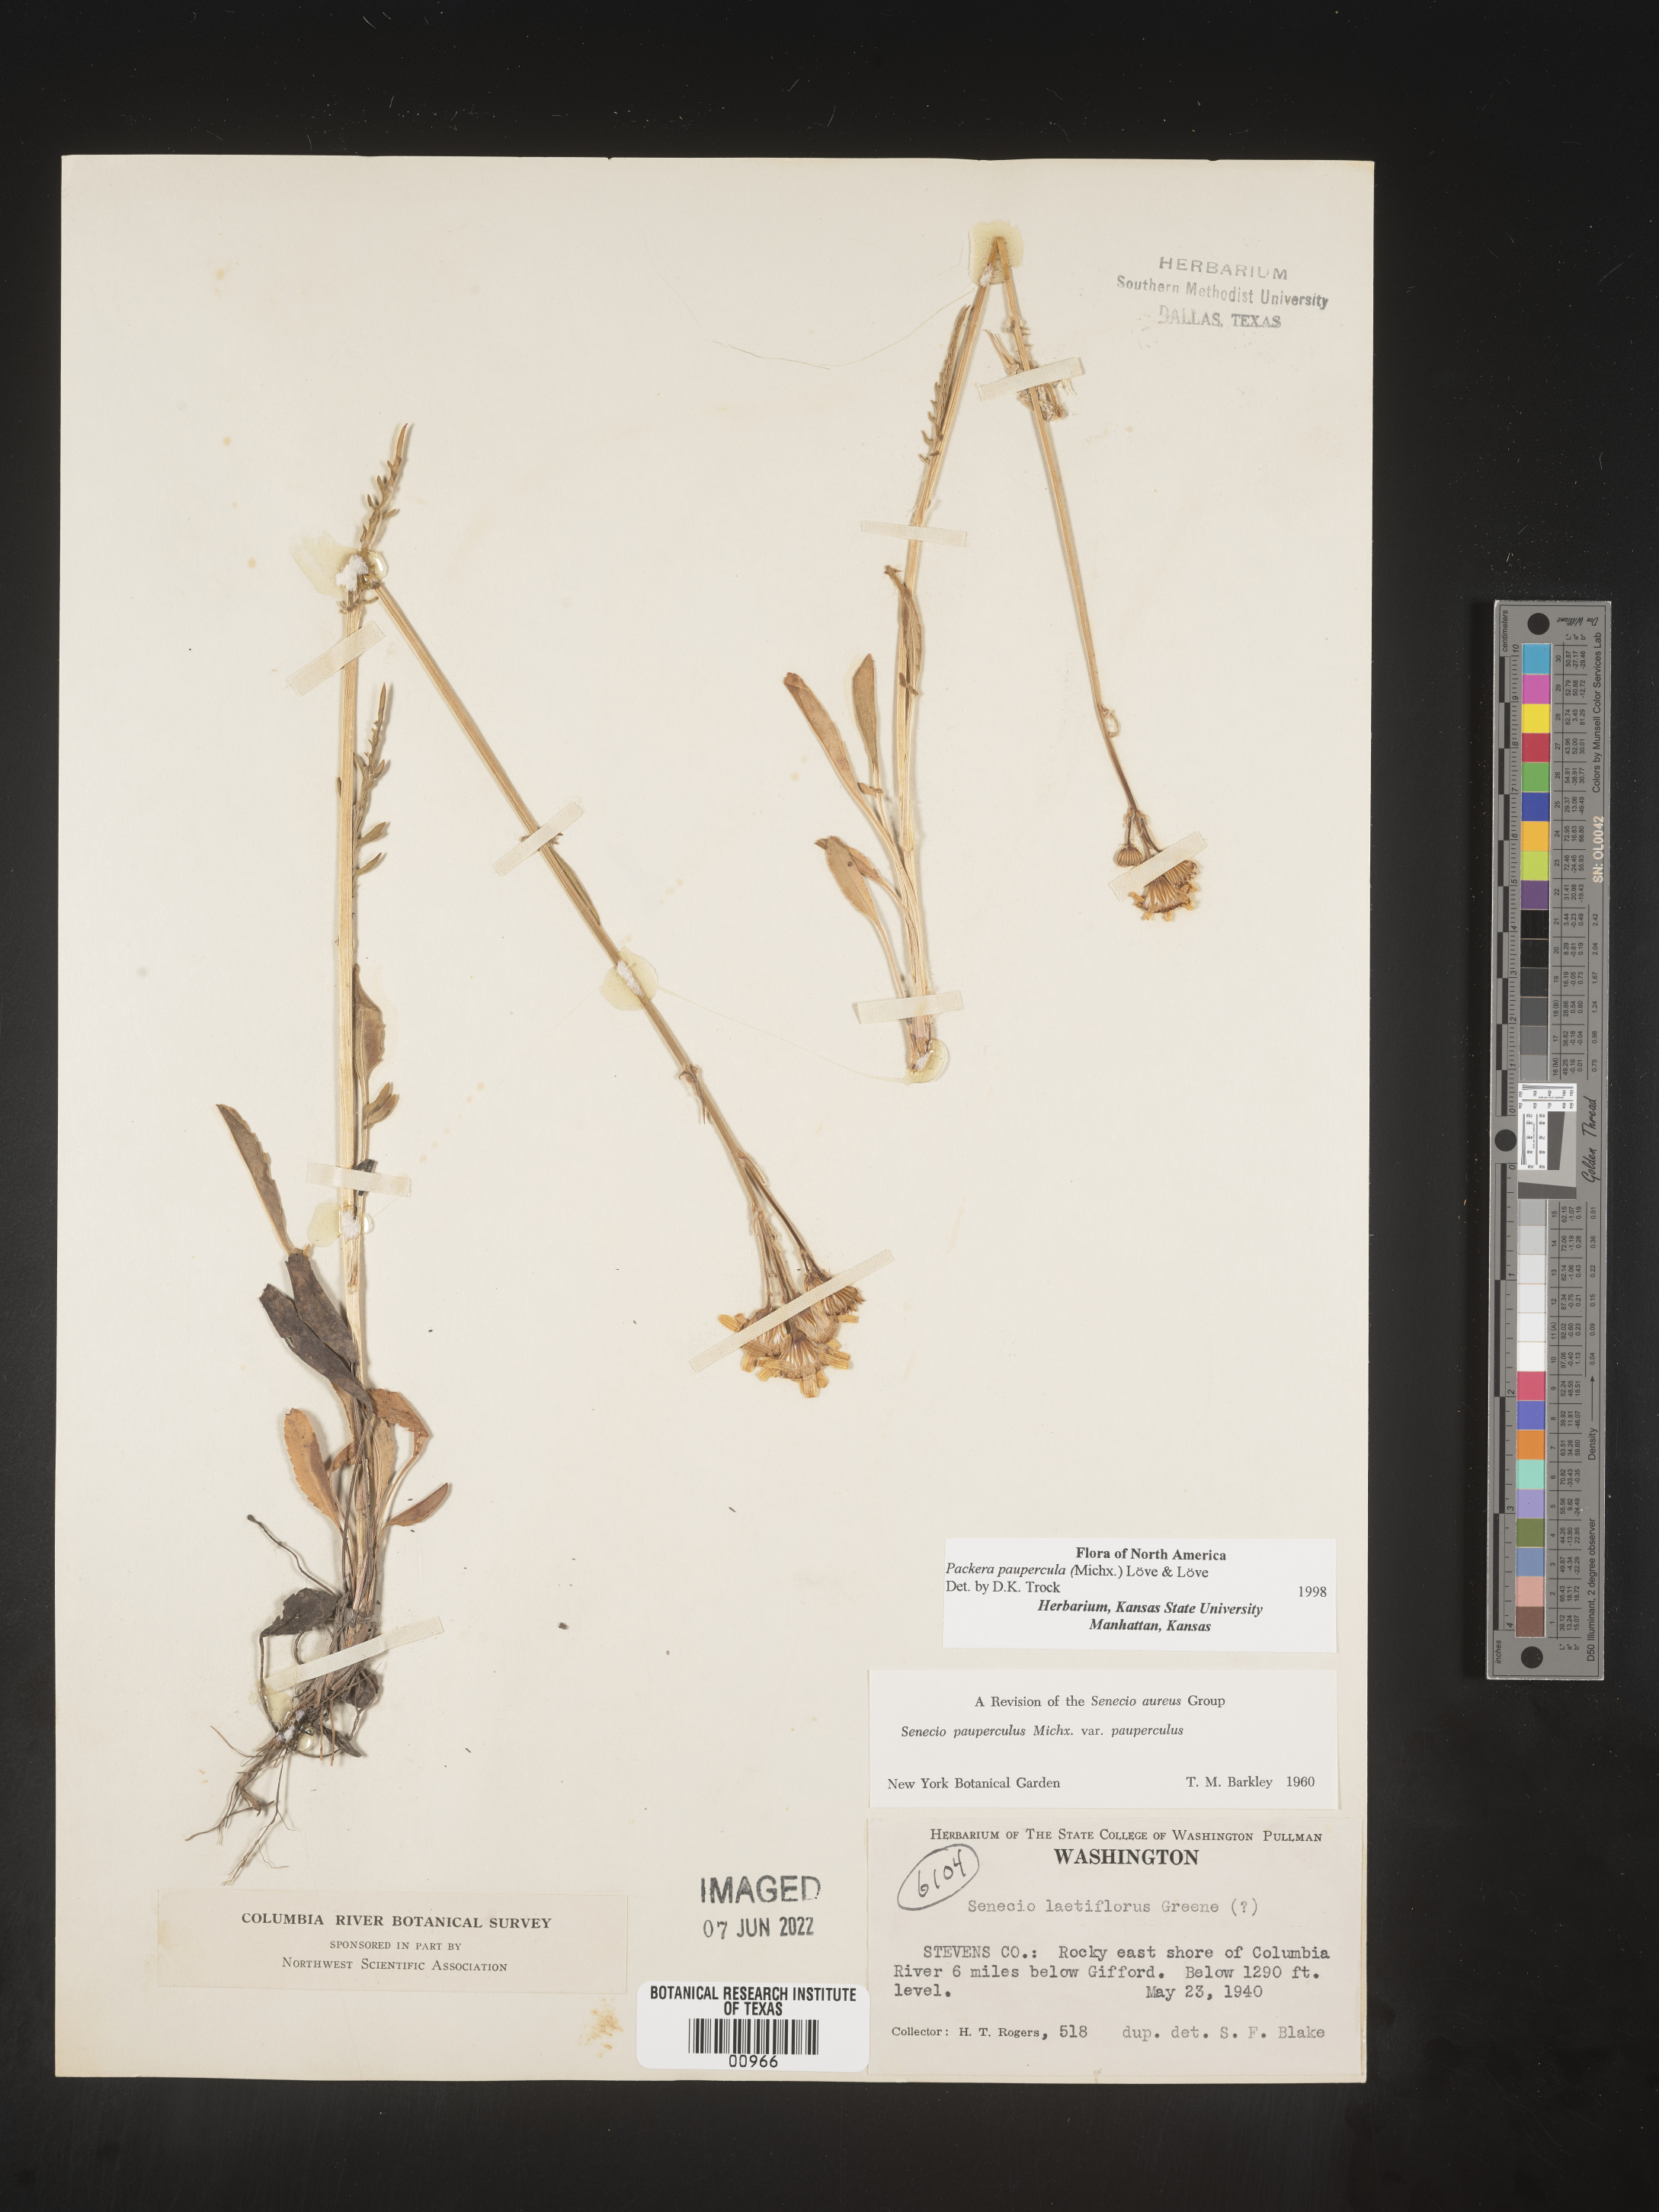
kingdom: Plantae
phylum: Tracheophyta
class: Magnoliopsida
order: Asterales
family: Asteraceae
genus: Packera
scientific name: Packera paupercula
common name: Balsam groundsel
